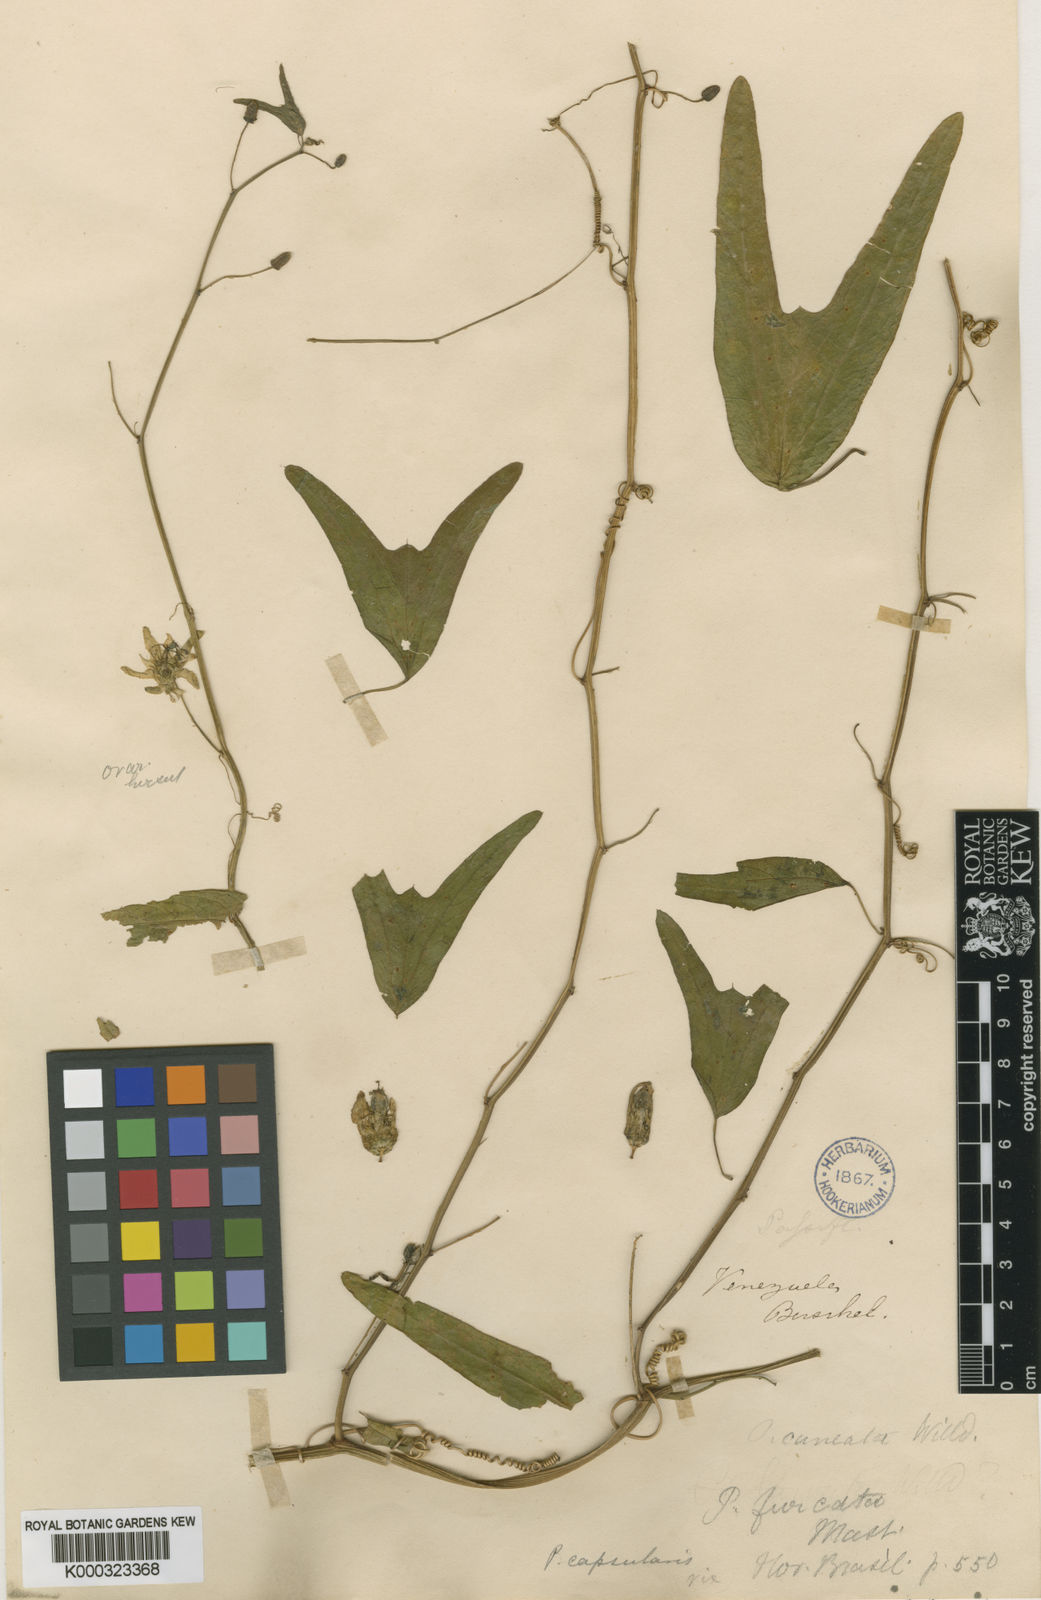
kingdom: Plantae
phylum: Tracheophyta
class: Magnoliopsida
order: Malpighiales
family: Passifloraceae
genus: Passiflora
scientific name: Passiflora cuneata
